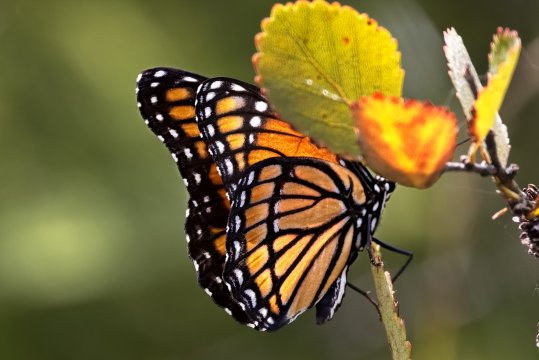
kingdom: Animalia
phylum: Arthropoda
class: Insecta
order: Lepidoptera
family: Nymphalidae
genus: Limenitis
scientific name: Limenitis archippus
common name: Viceroy
